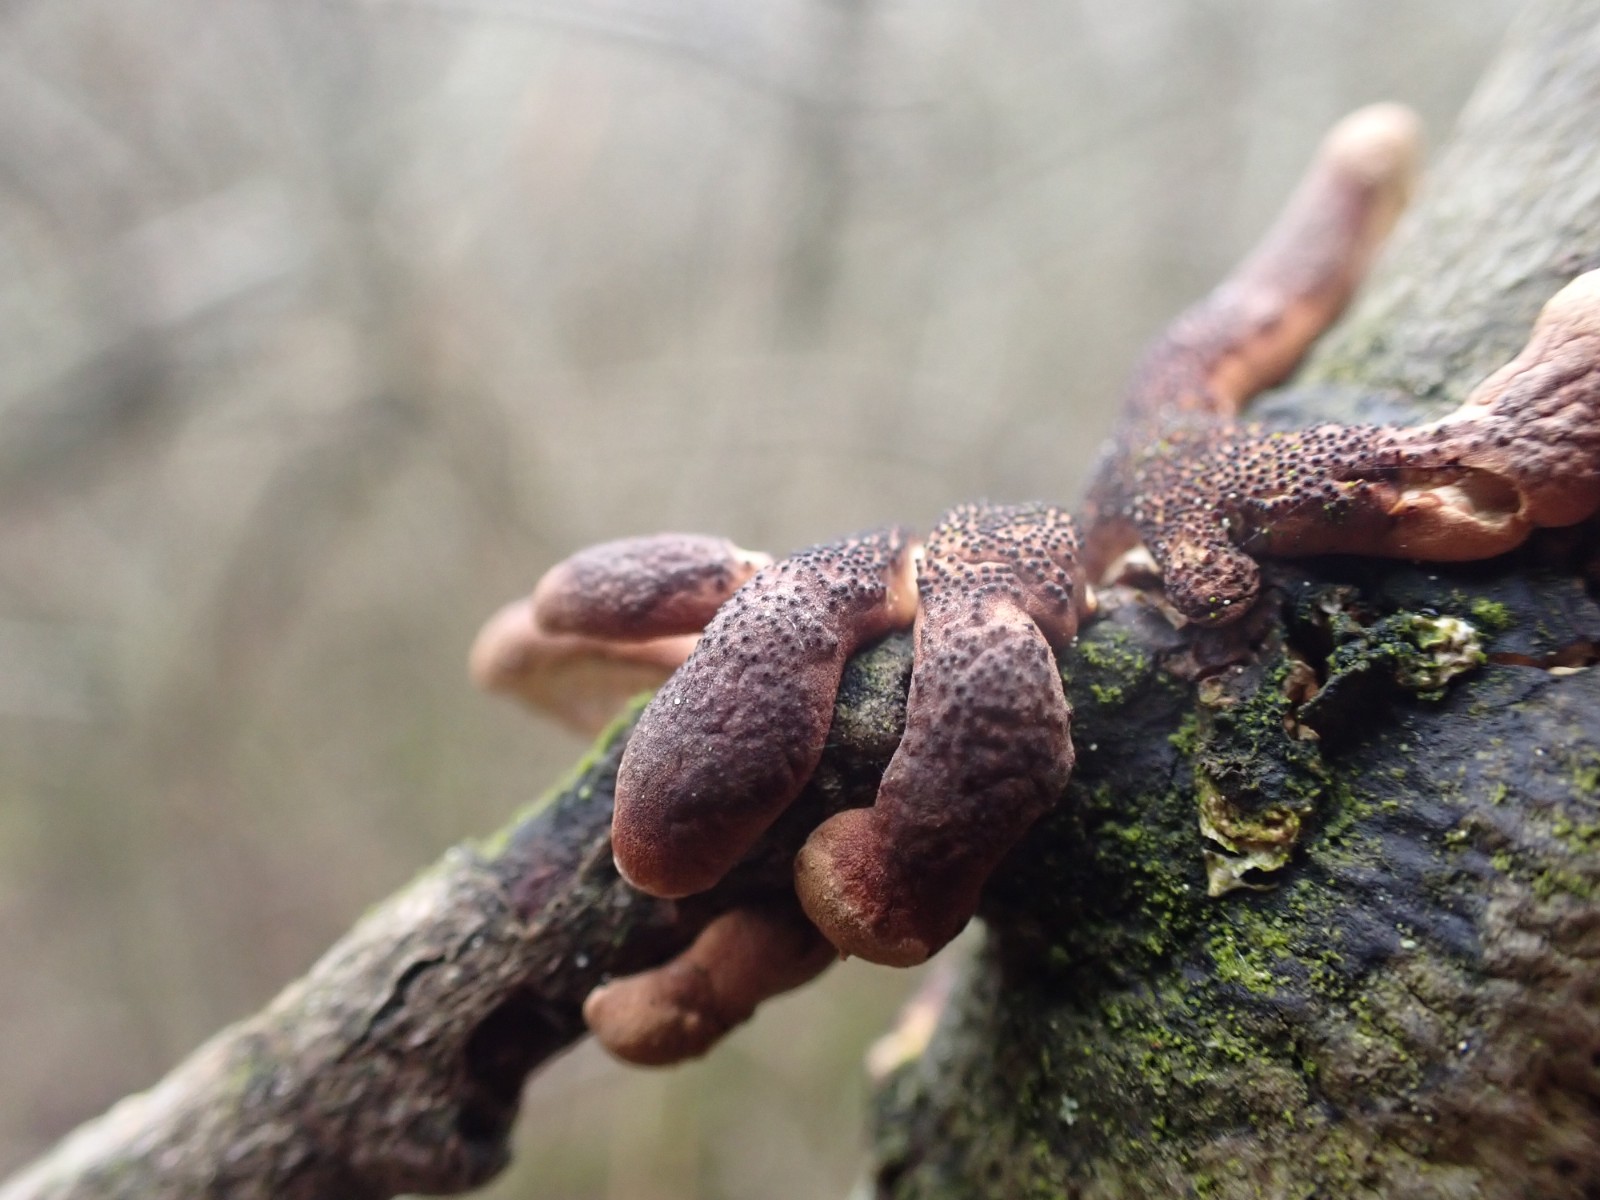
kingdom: Fungi
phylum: Ascomycota
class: Sordariomycetes
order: Hypocreales
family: Hypocreaceae
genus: Hypocreopsis
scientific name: Hypocreopsis lichenoides
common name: pilfinger
